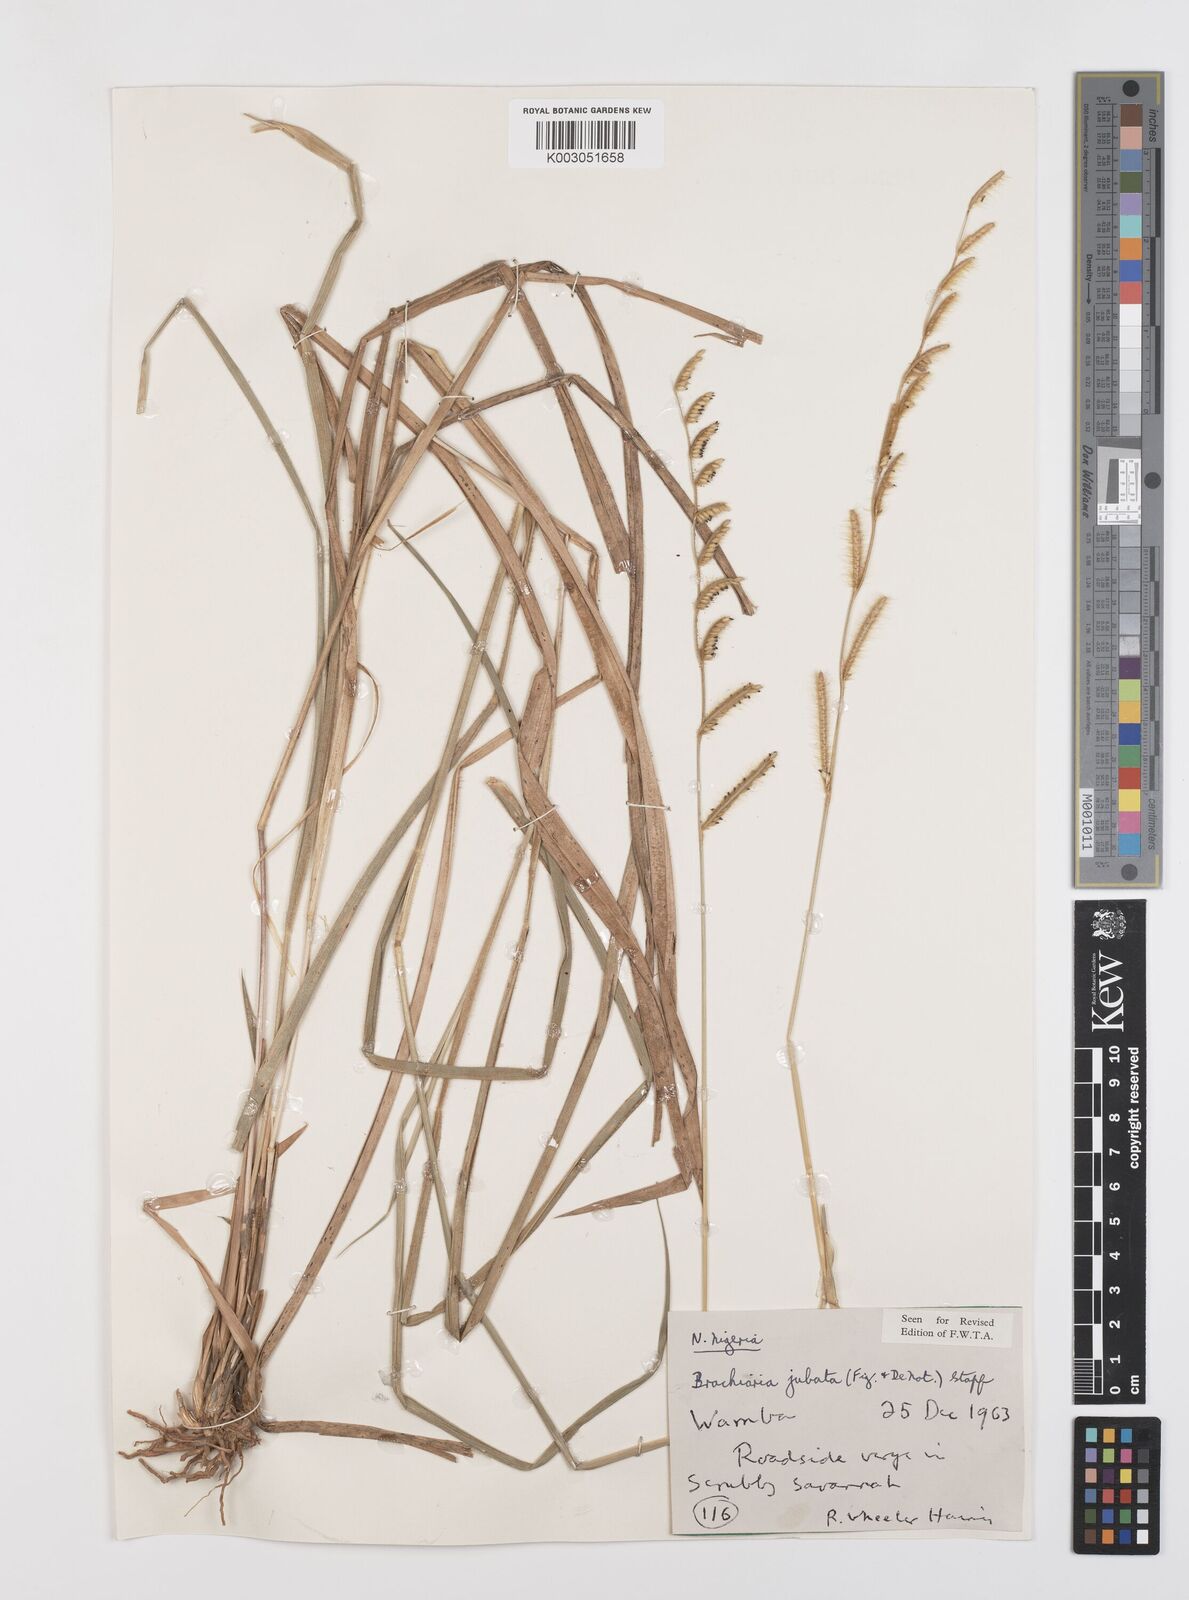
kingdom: Plantae
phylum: Tracheophyta
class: Liliopsida
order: Poales
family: Poaceae
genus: Urochloa
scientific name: Urochloa jubata
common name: Buffalograss
